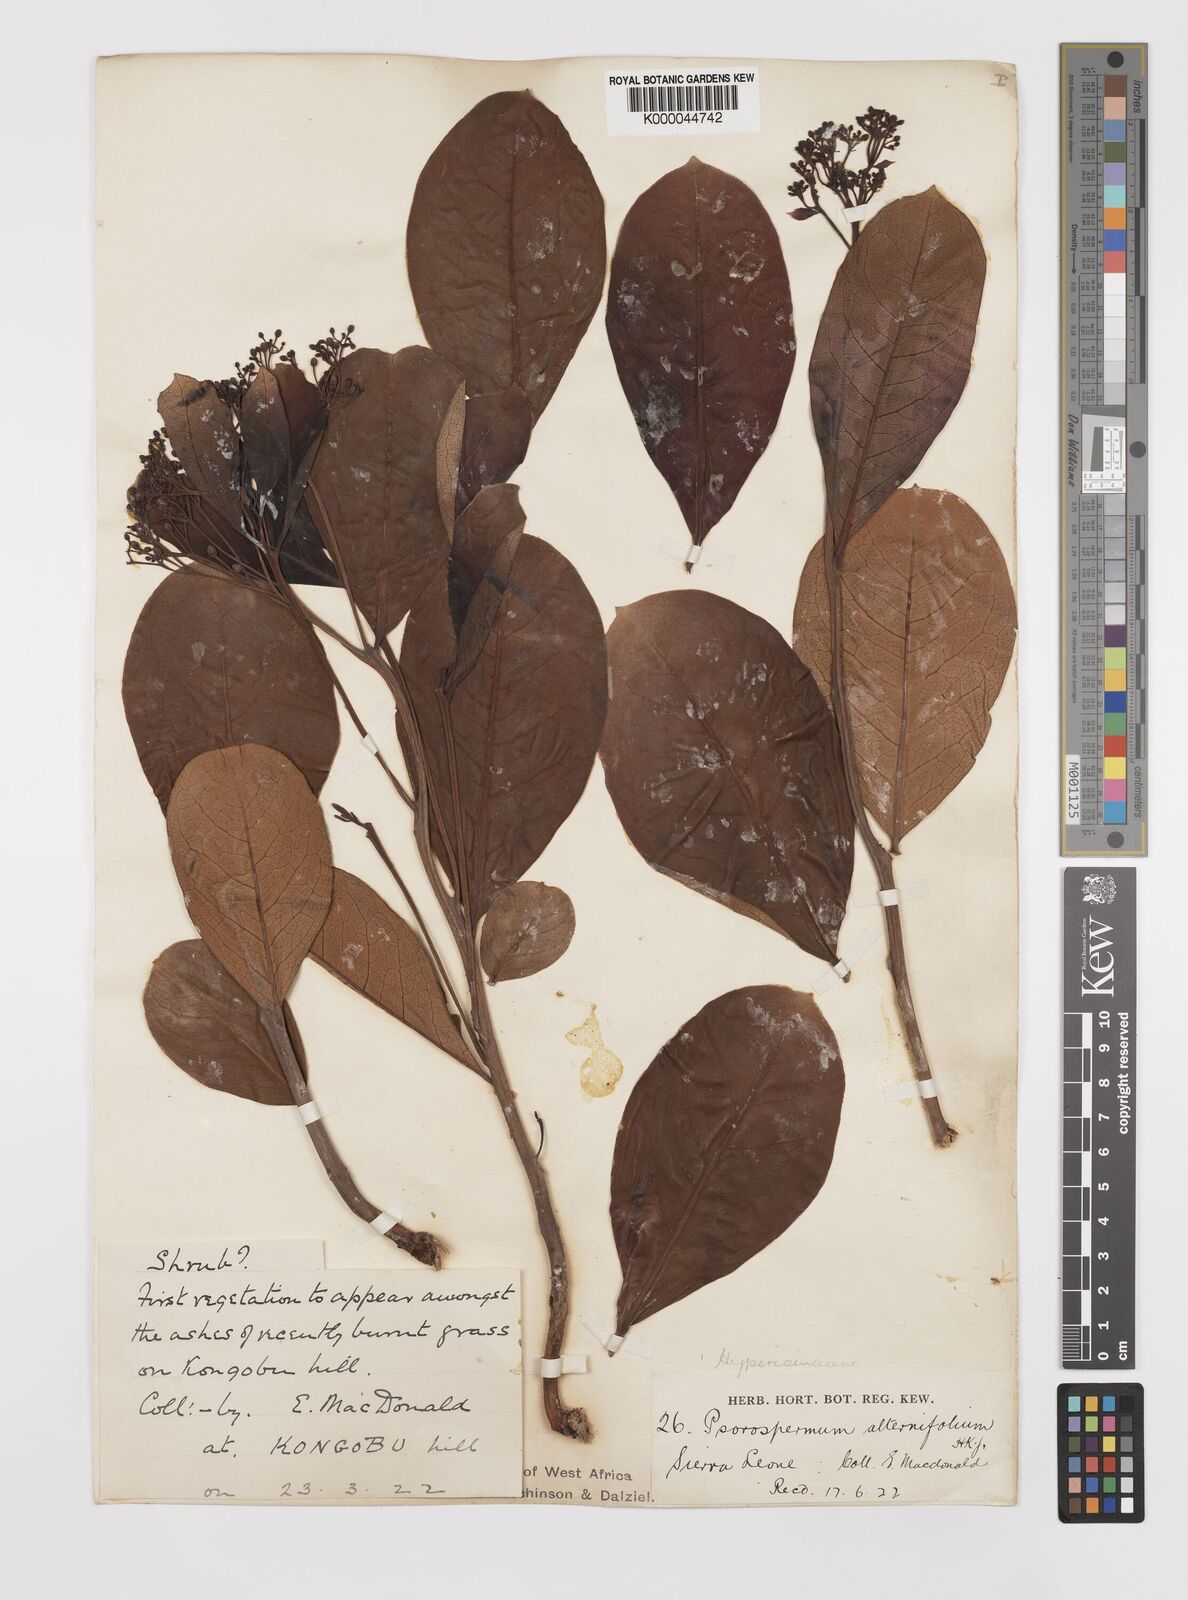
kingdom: Plantae
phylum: Tracheophyta
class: Magnoliopsida
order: Malpighiales
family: Hypericaceae
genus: Psorospermum
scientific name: Psorospermum alternifolium
